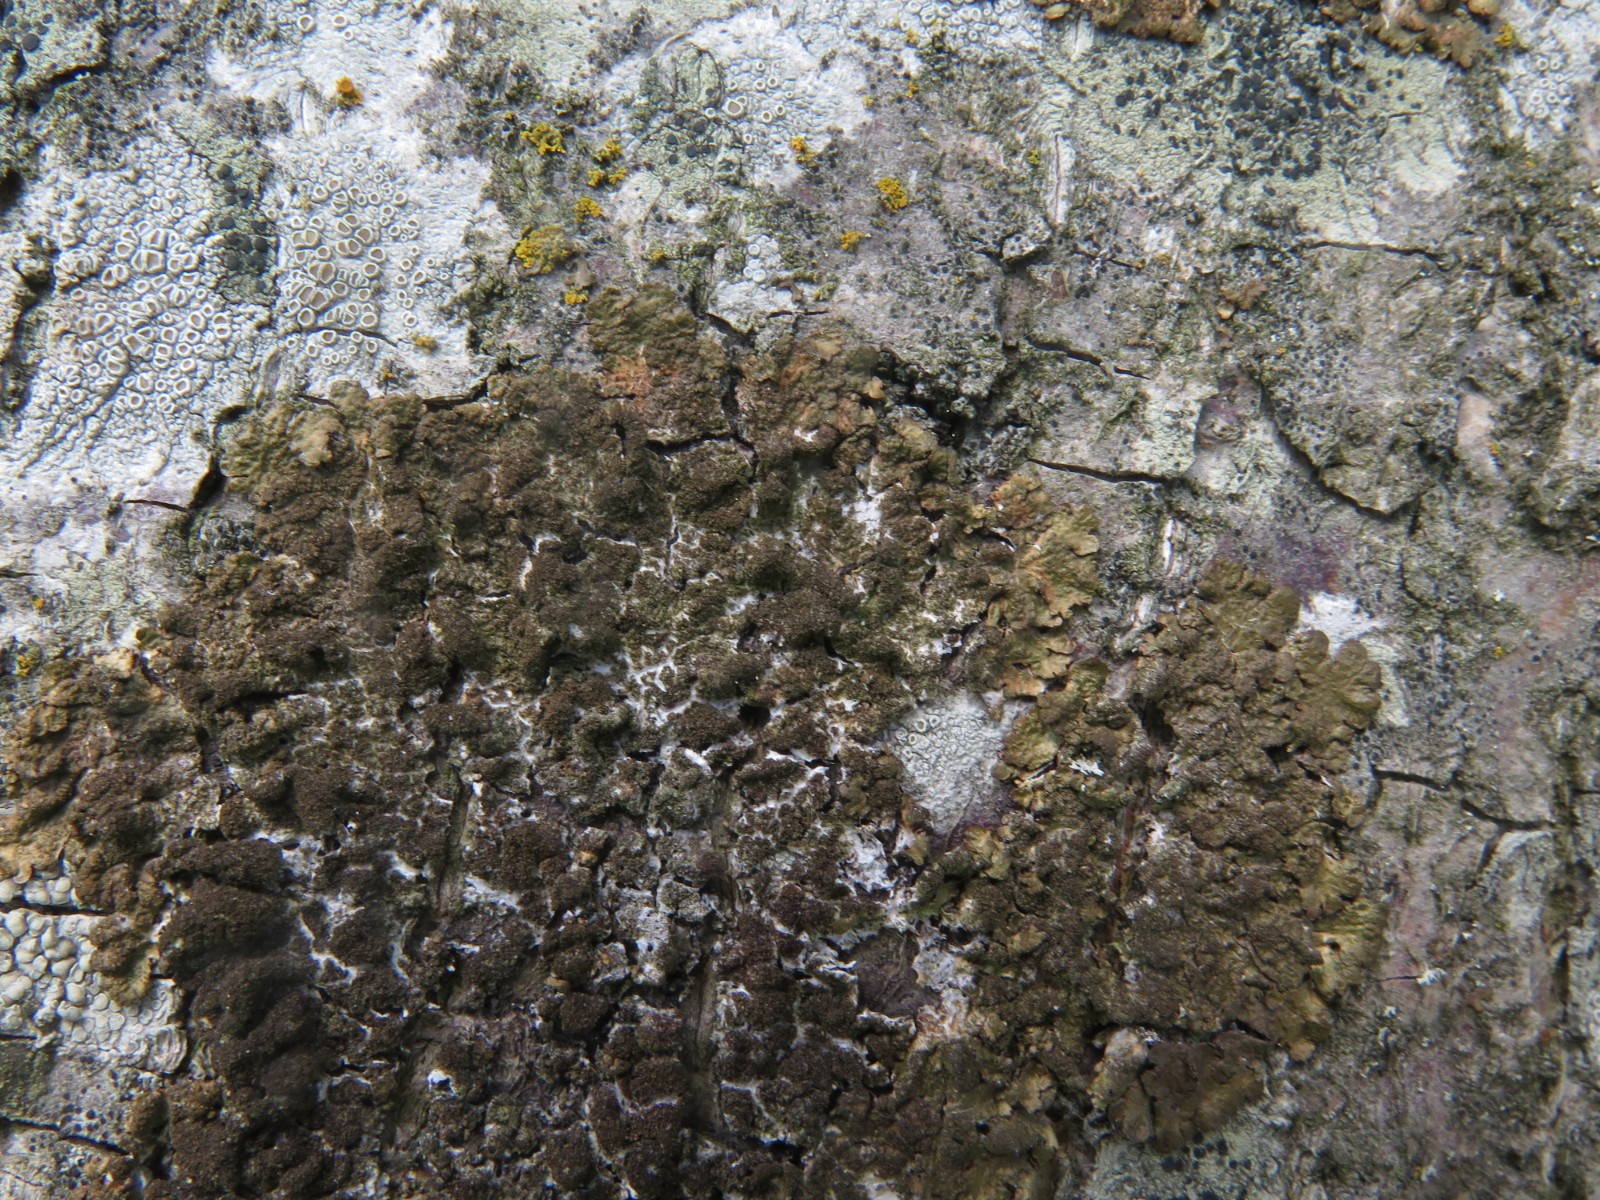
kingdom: Fungi
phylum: Ascomycota
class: Lecanoromycetes
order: Lecanorales
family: Parmeliaceae
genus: Melanelixia
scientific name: Melanelixia subaurifera
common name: guldpudret skållav
